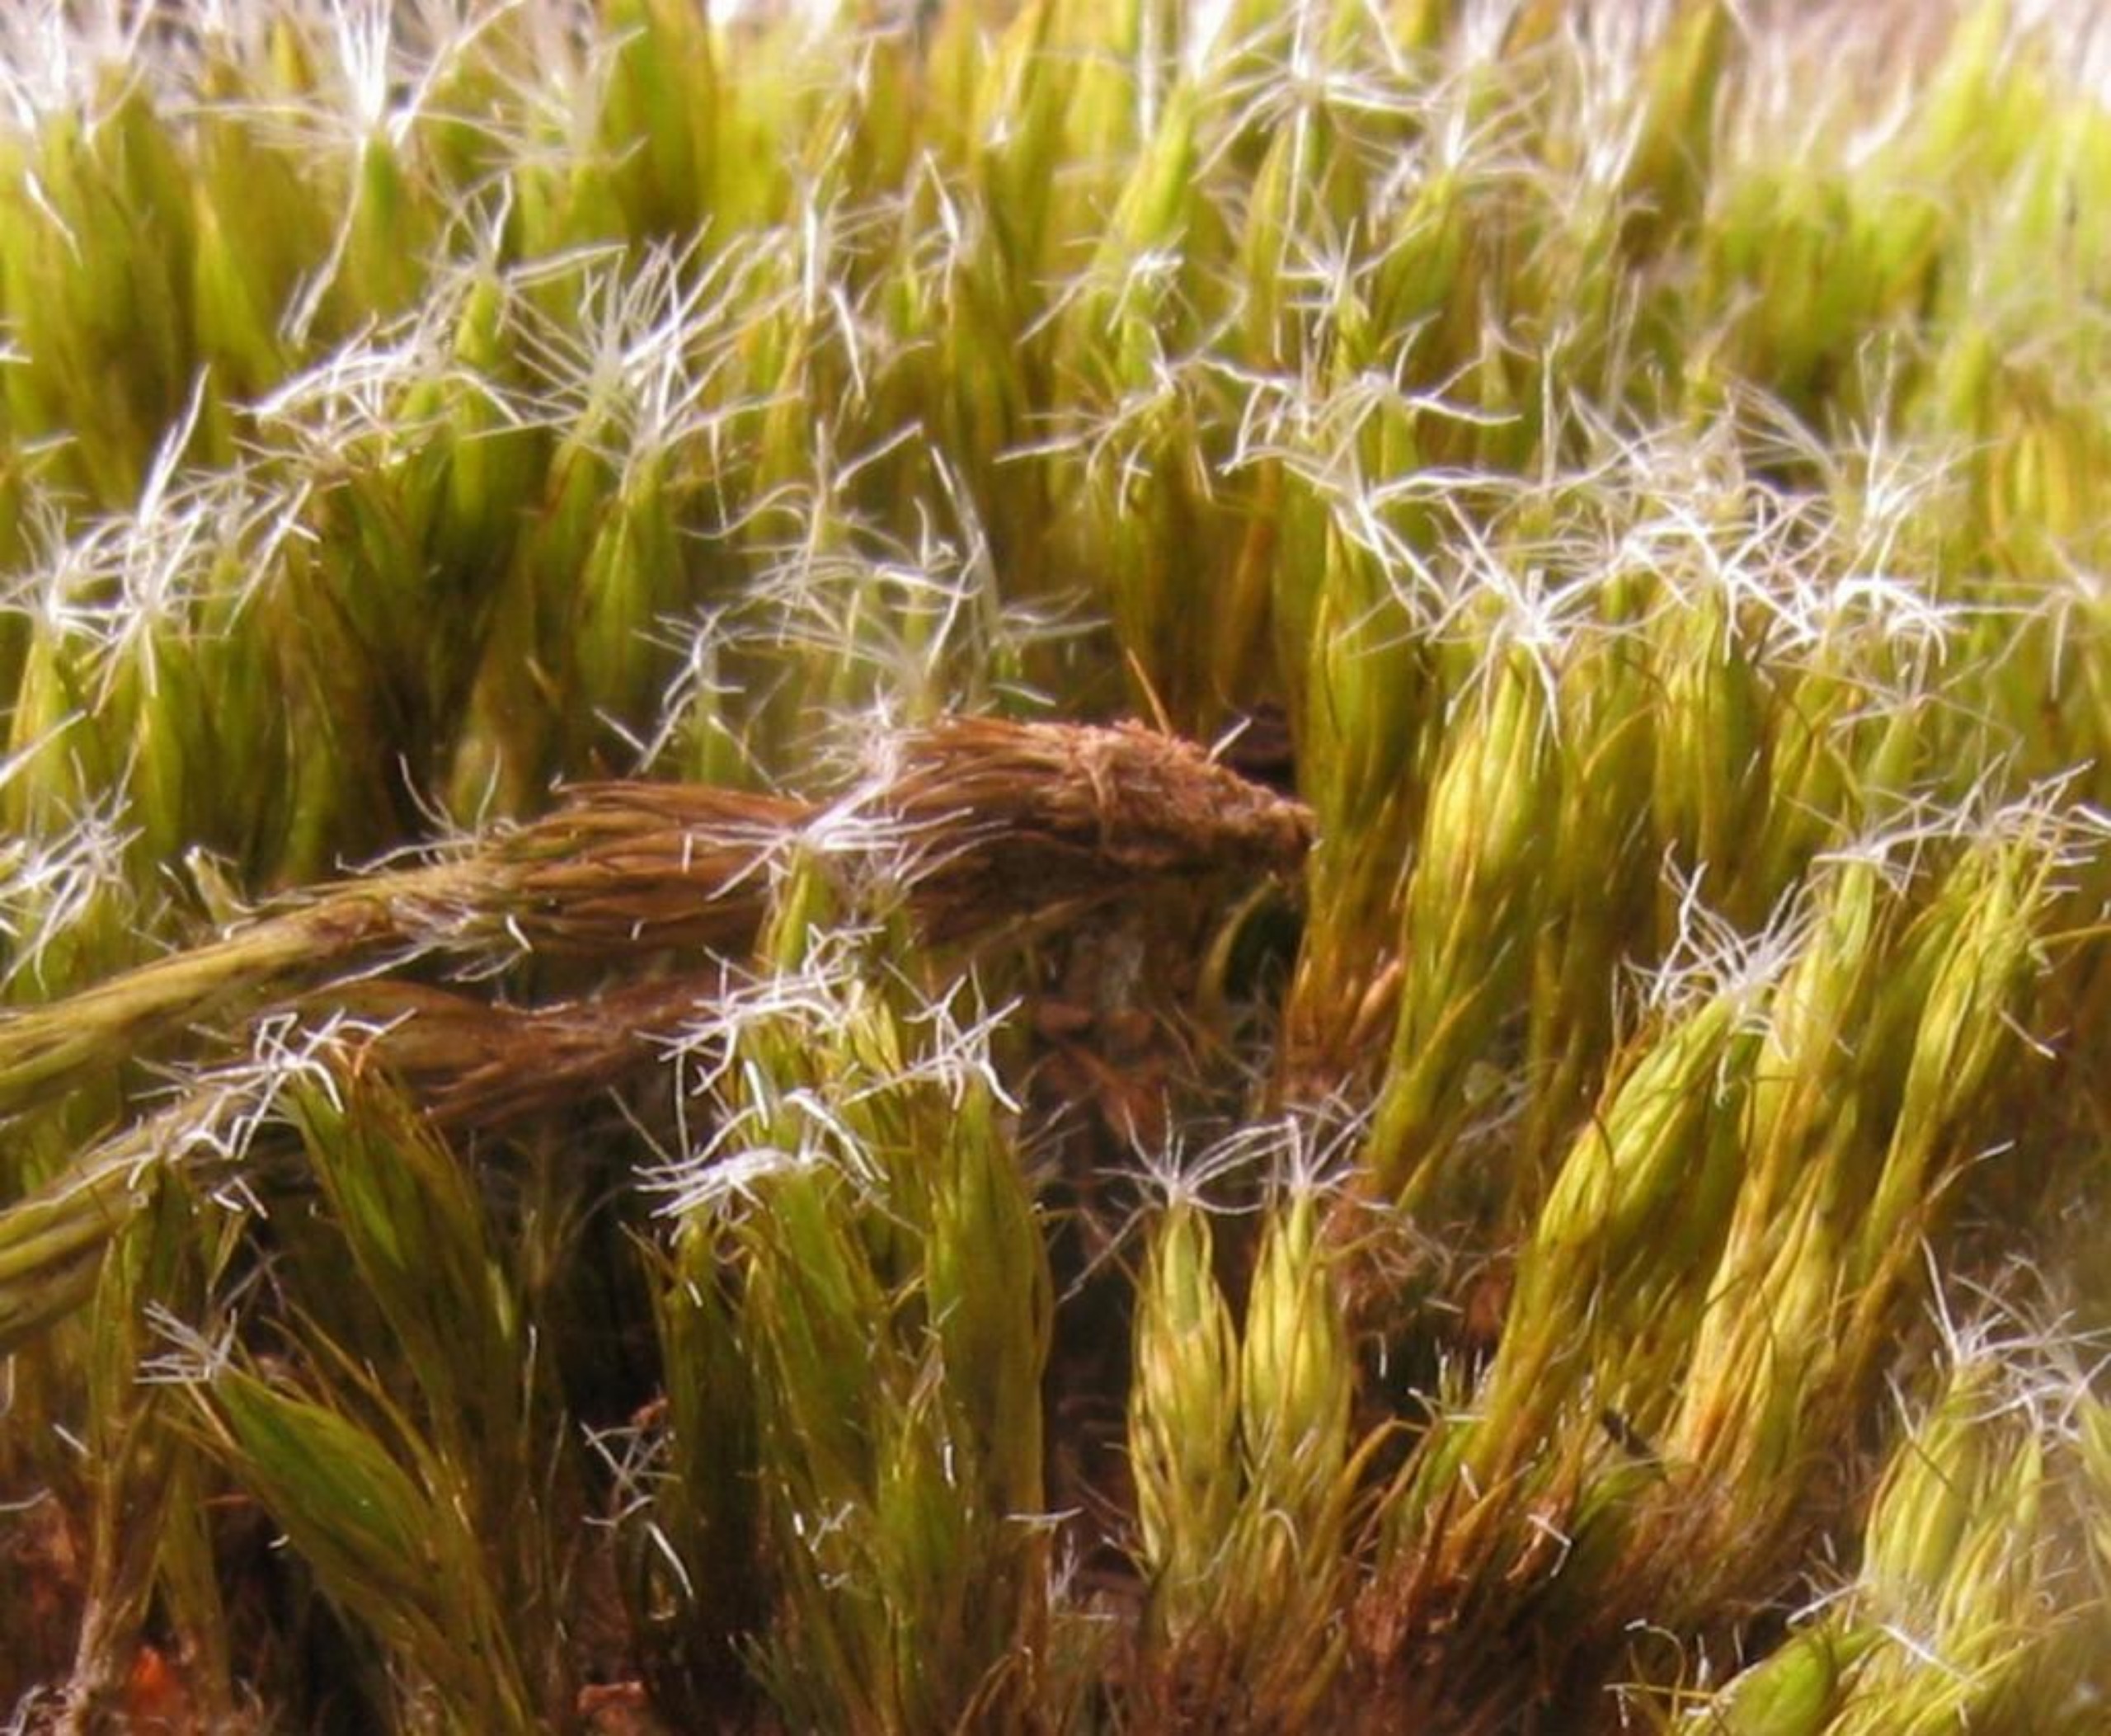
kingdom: Plantae
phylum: Bryophyta
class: Bryopsida
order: Dicranales
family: Leucobryaceae
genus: Campylopus
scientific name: Campylopus introflexus
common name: Stjerne-bredribbe
